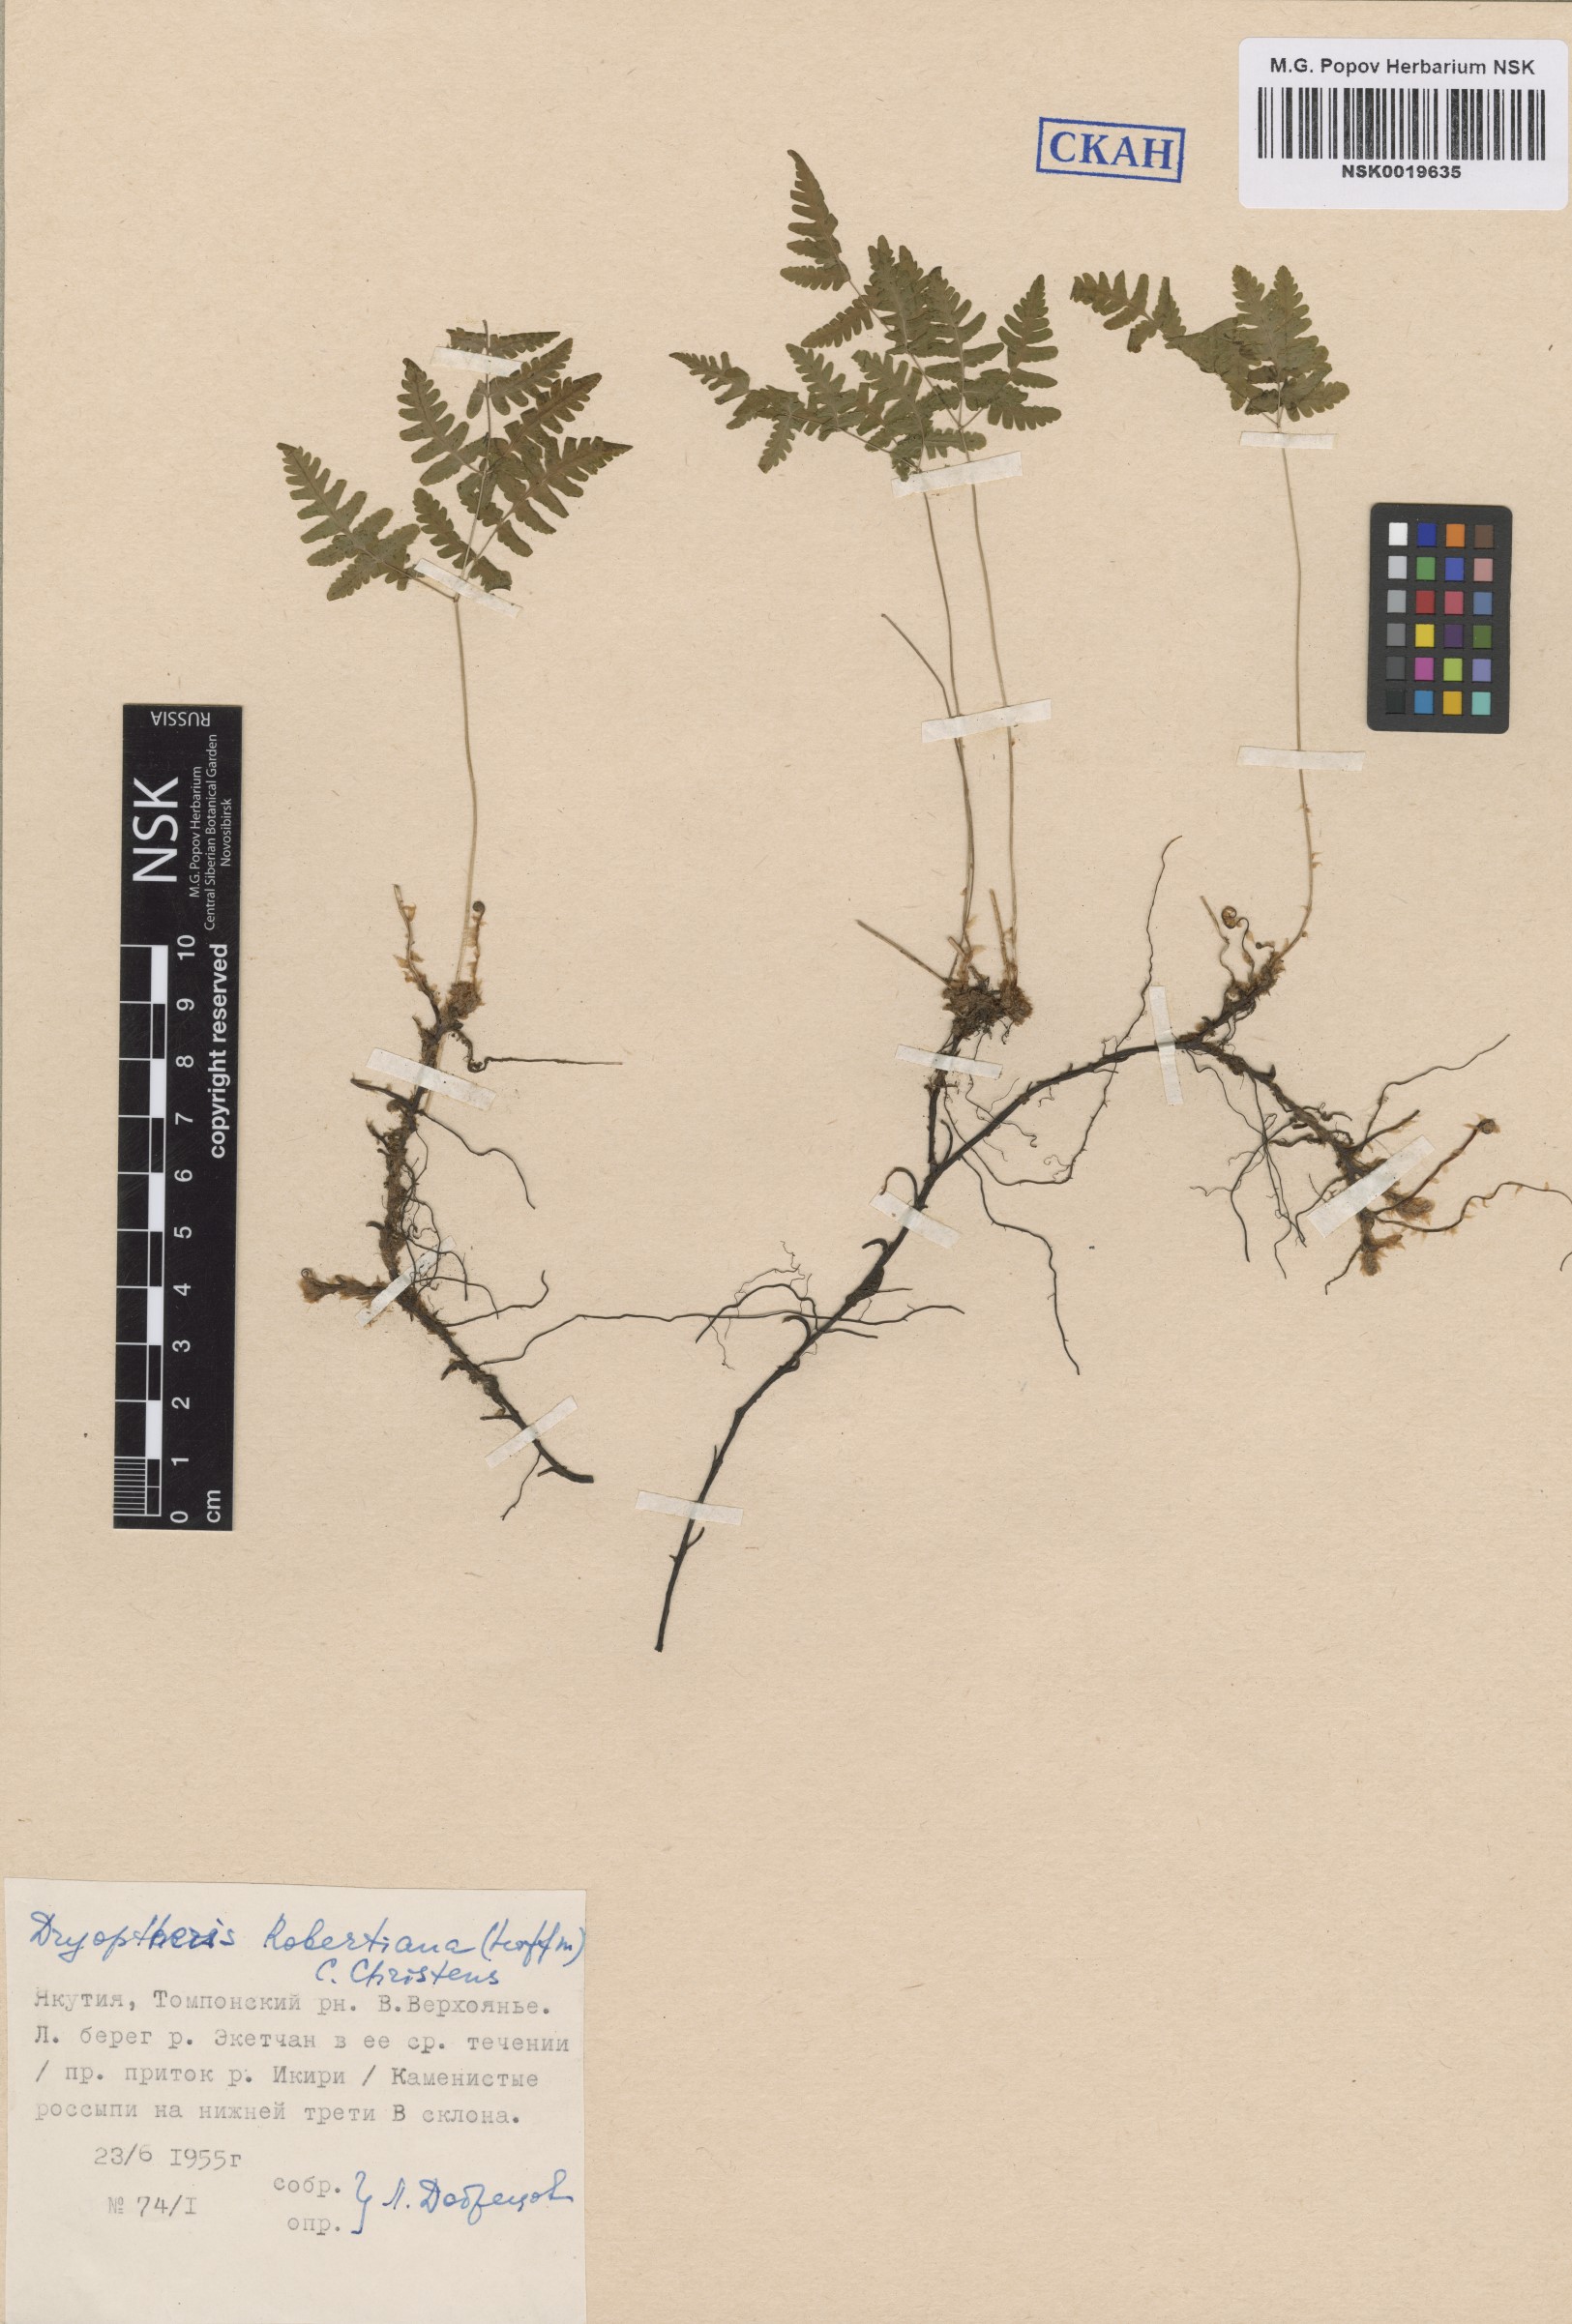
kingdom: Plantae
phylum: Tracheophyta
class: Polypodiopsida
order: Polypodiales
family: Cystopteridaceae
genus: Gymnocarpium
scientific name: Gymnocarpium robertianum
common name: Limestone fern
